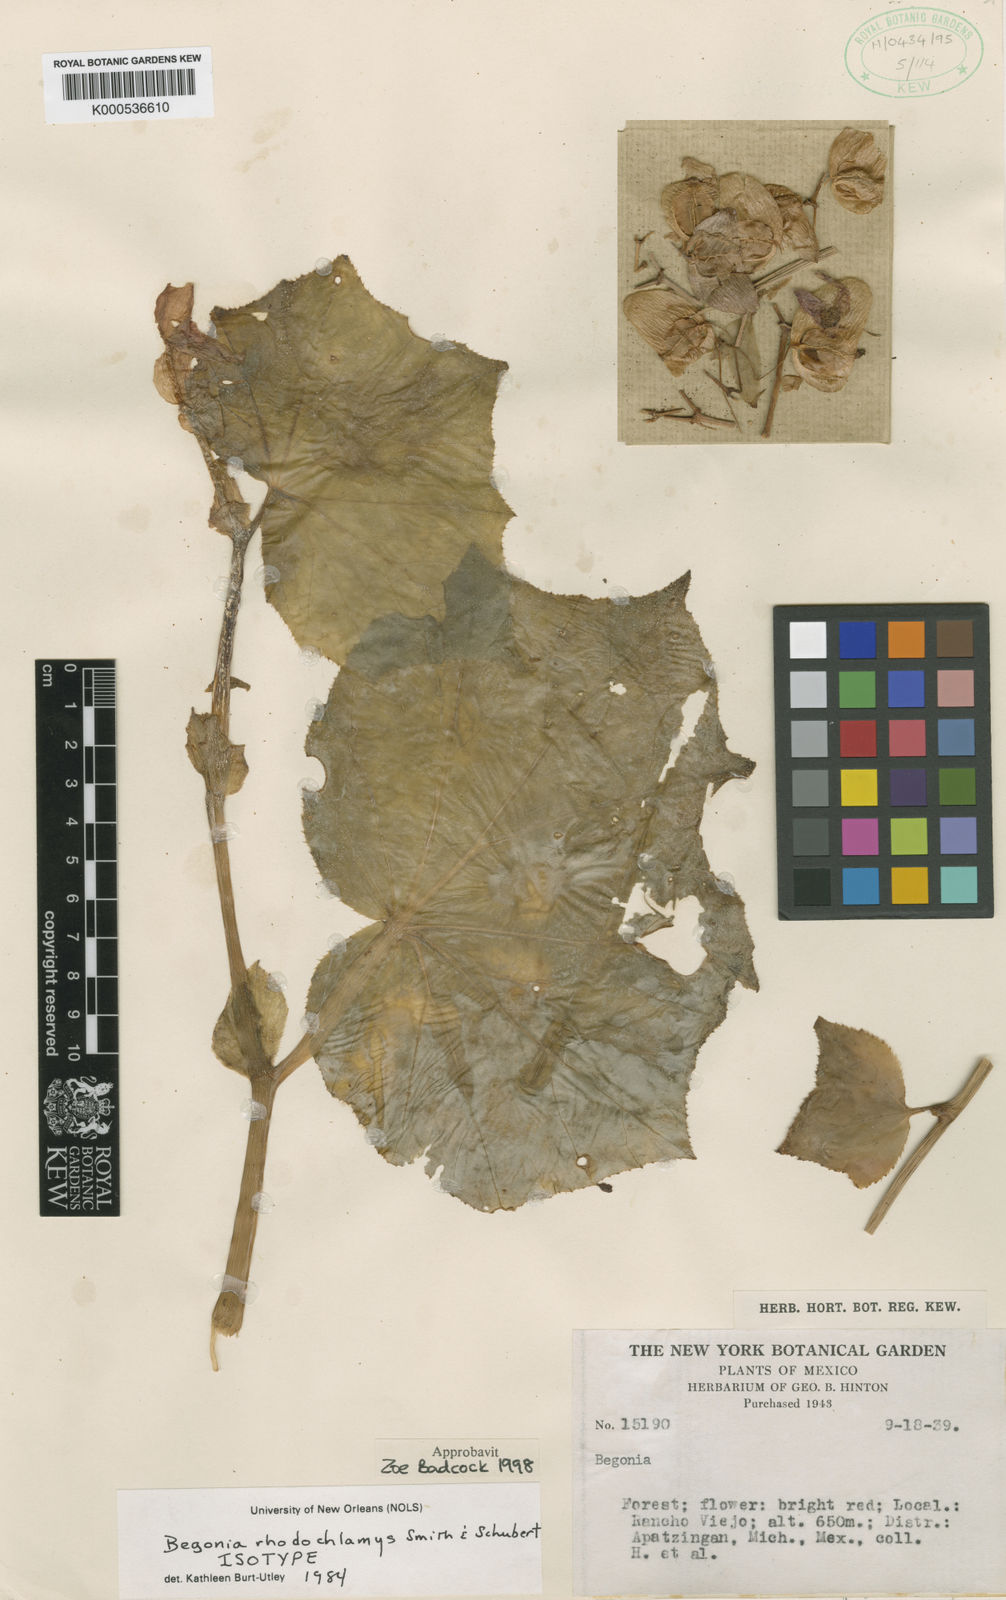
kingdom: Plantae
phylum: Tracheophyta
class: Magnoliopsida
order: Cucurbitales
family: Begoniaceae
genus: Begonia
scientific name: Begonia rhodochlamys
